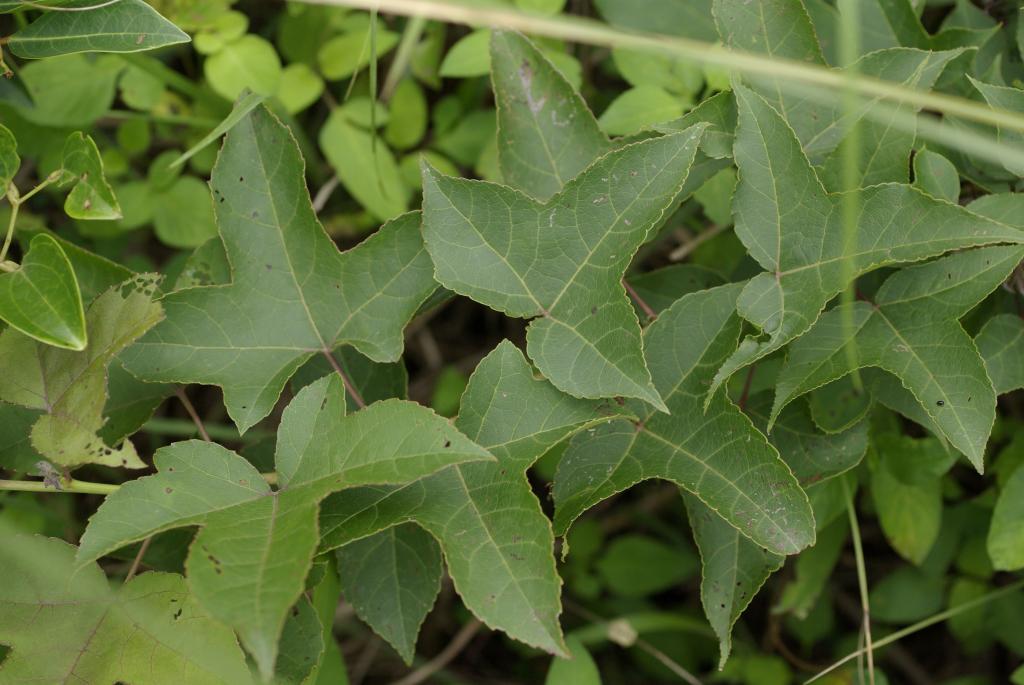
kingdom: Plantae
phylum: Tracheophyta
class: Magnoliopsida
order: Saxifragales
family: Altingiaceae
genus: Liquidambar
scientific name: Liquidambar formosana
